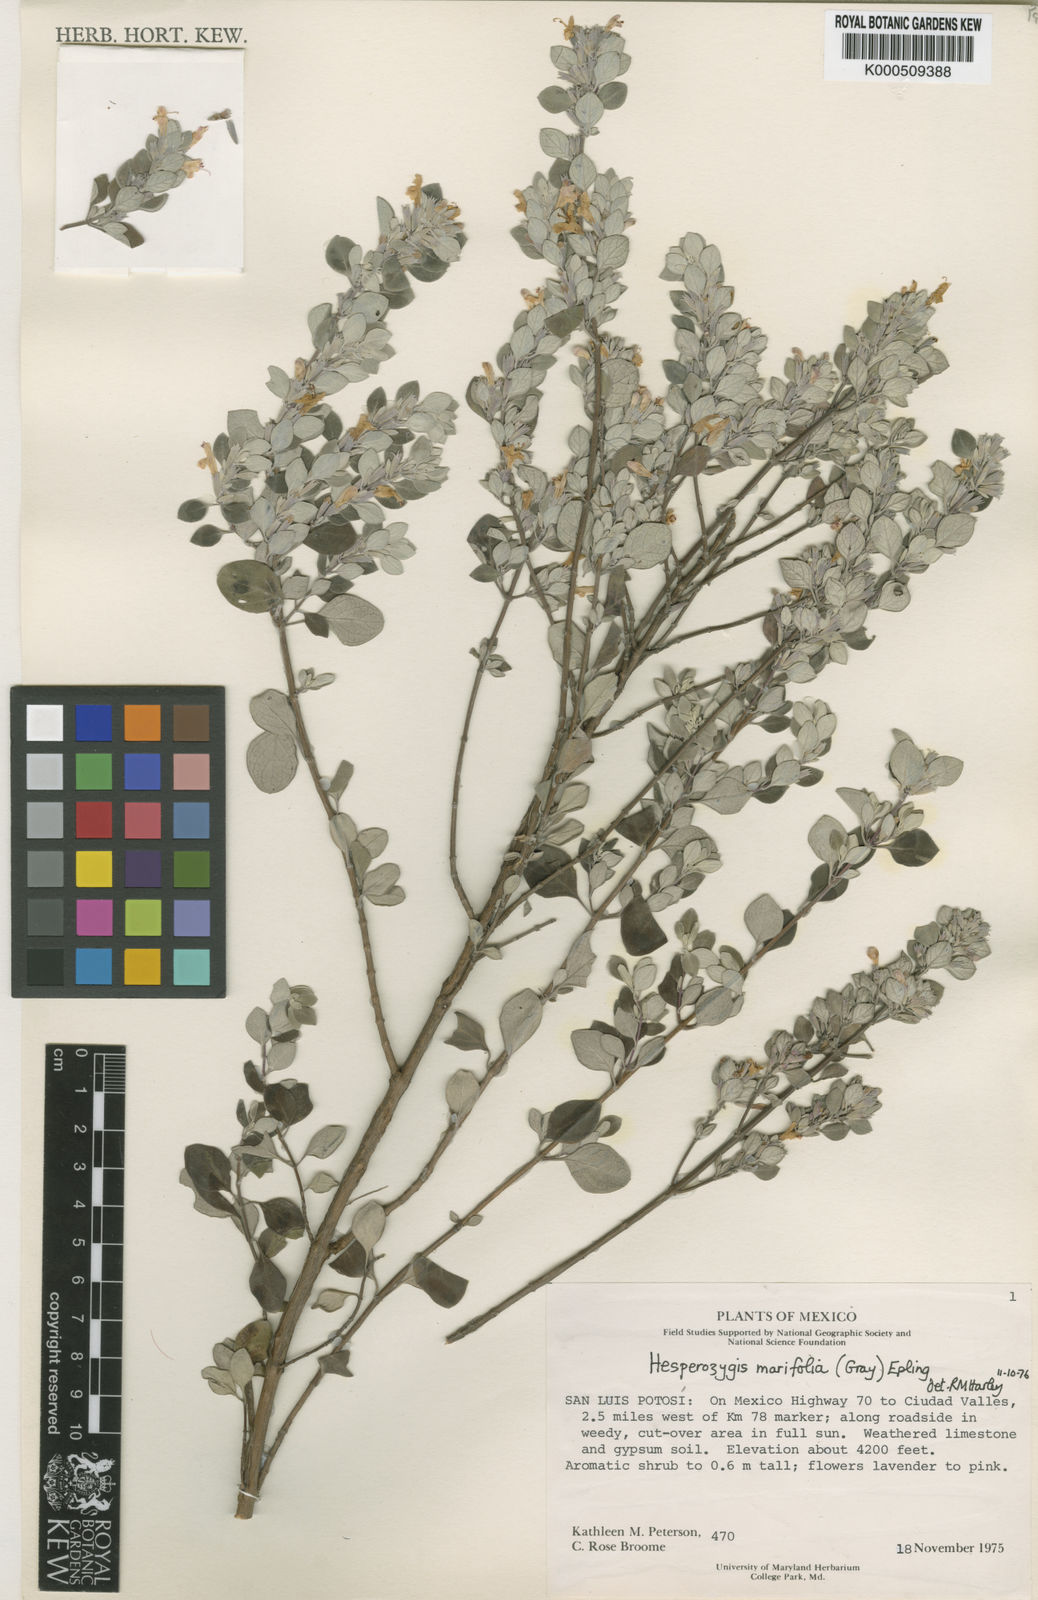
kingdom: Plantae
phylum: Tracheophyta
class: Magnoliopsida
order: Lamiales
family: Lamiaceae
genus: Poliomintha
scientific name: Poliomintha marifolia
